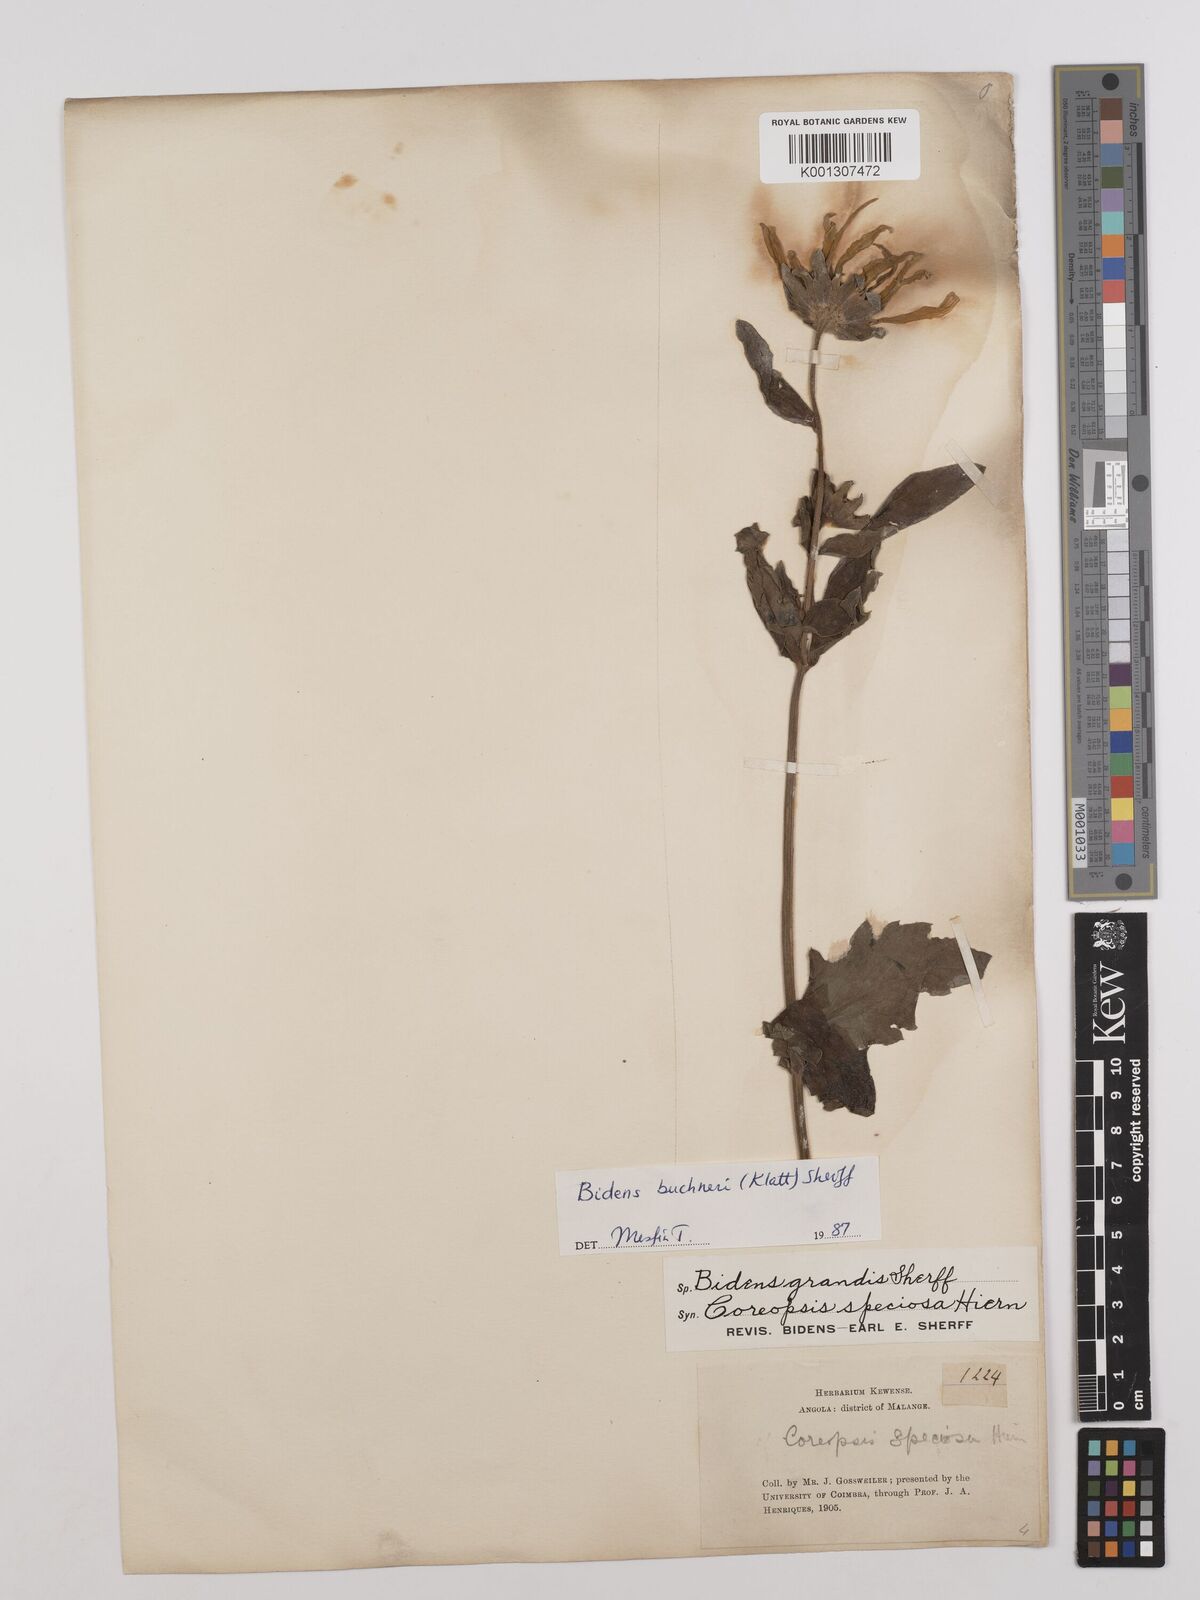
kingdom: Plantae
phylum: Tracheophyta
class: Magnoliopsida
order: Asterales
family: Asteraceae
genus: Bidens
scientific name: Bidens buchneri
